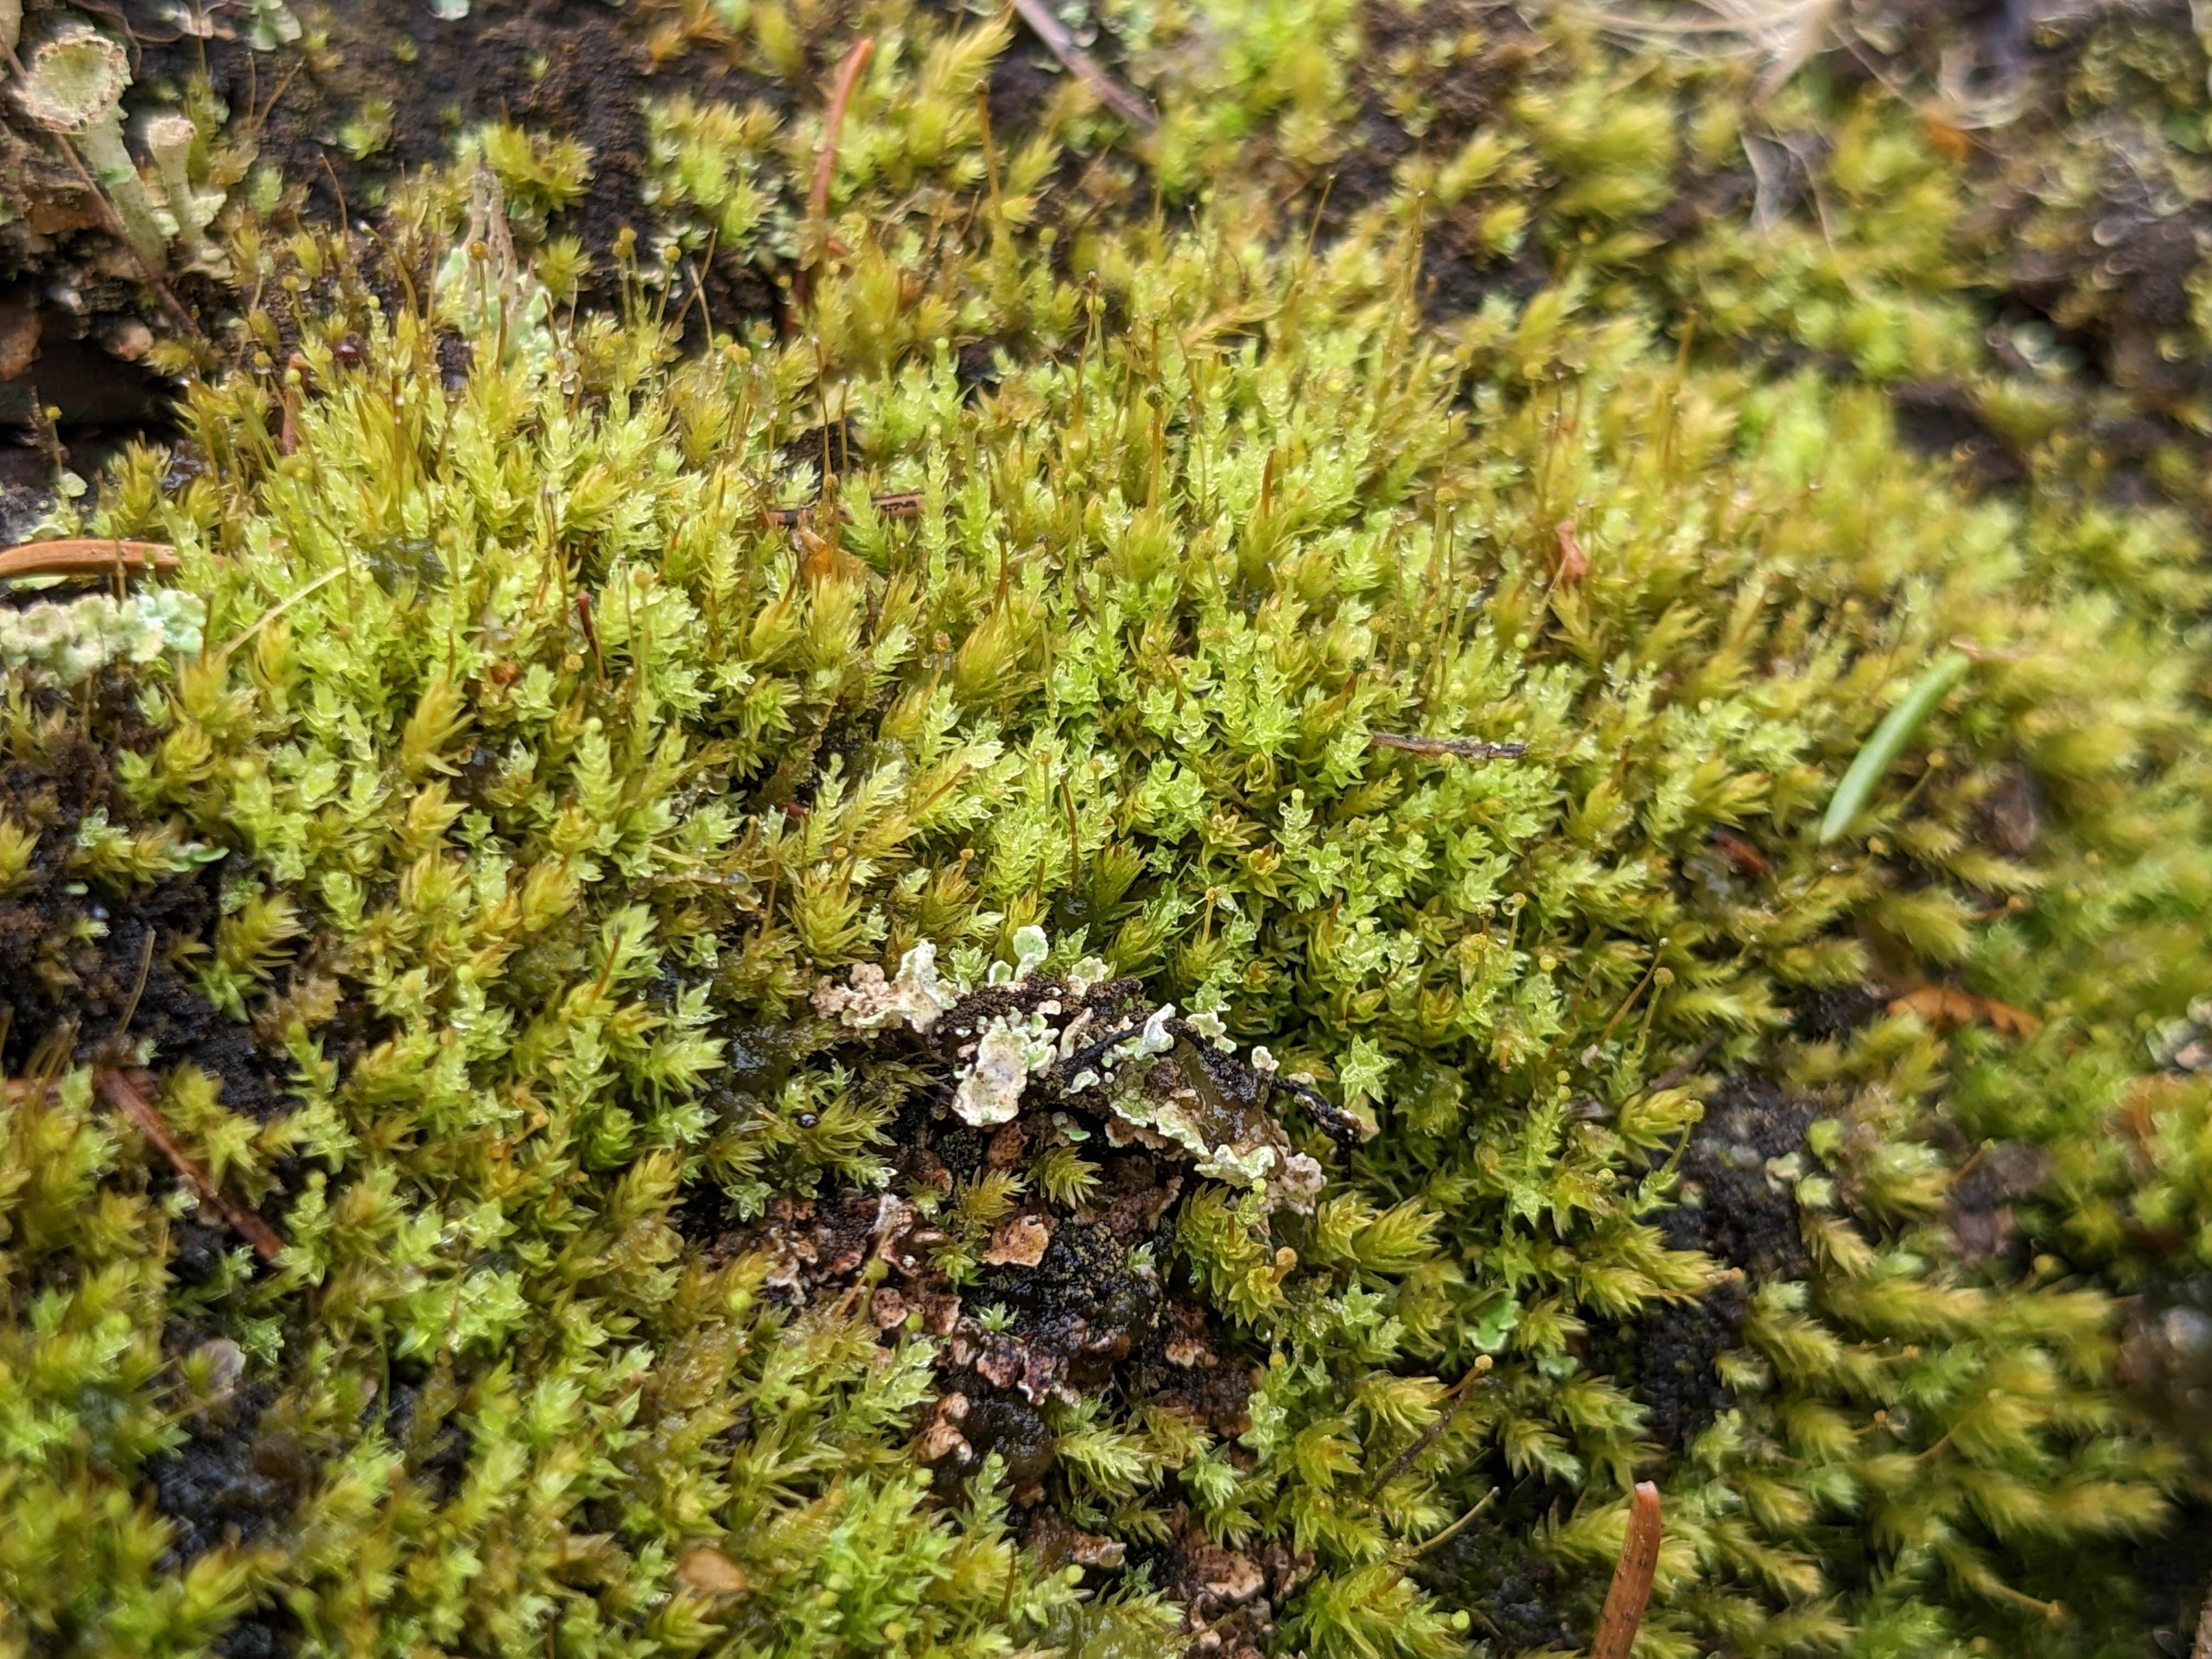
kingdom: Plantae
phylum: Bryophyta
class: Bryopsida
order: Aulacomniales
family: Aulacomniaceae
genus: Aulacomnium
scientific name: Aulacomnium androgynum
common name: Kugle-filtmos
